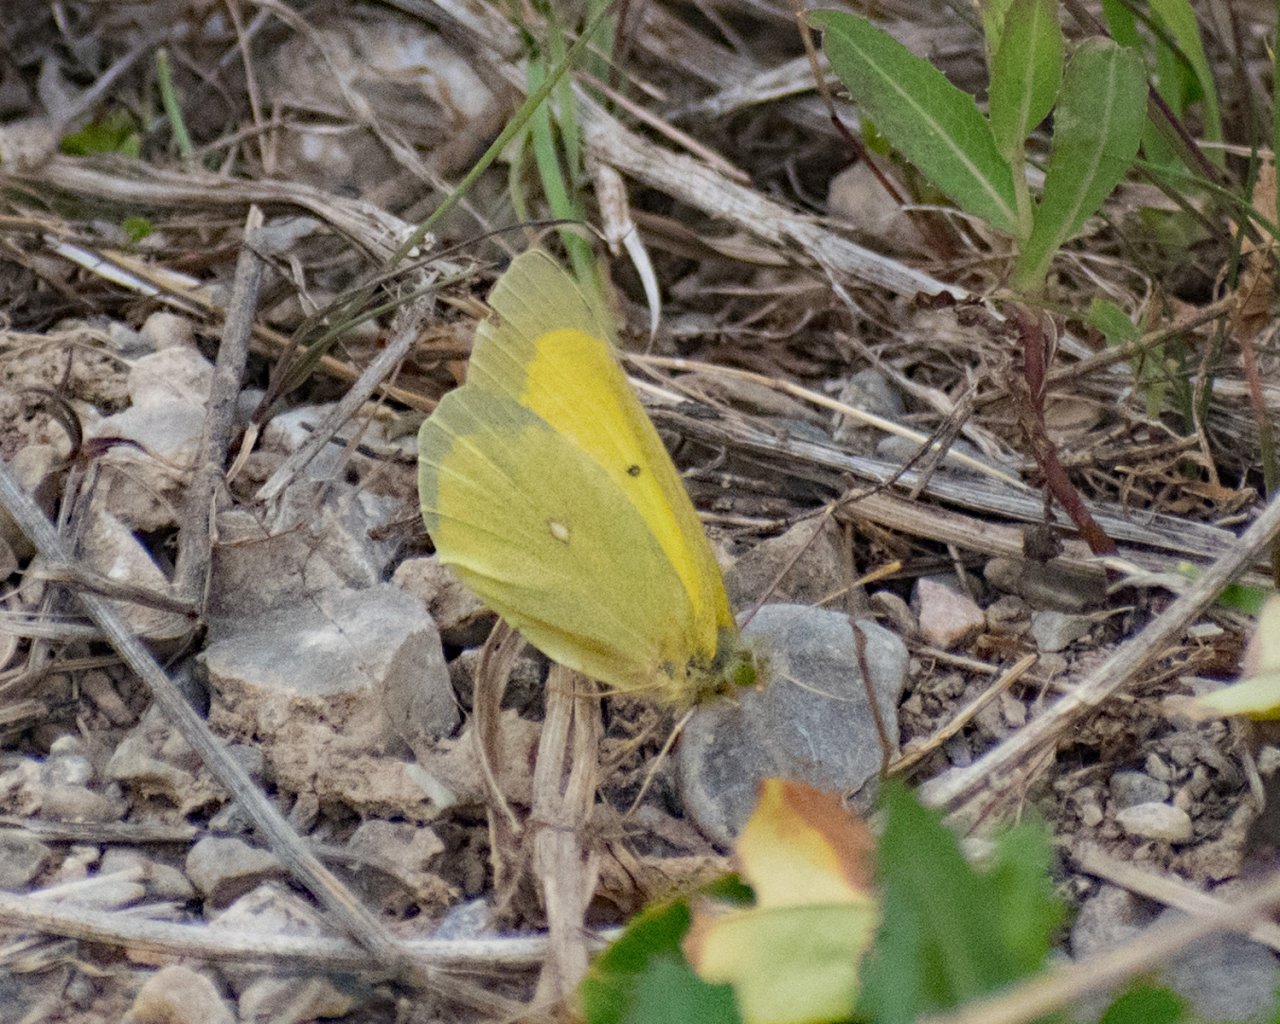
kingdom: Animalia
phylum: Arthropoda
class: Insecta
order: Lepidoptera
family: Pieridae
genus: Colias
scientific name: Colias alexandra
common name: Queen Alexandra's Sulphur
